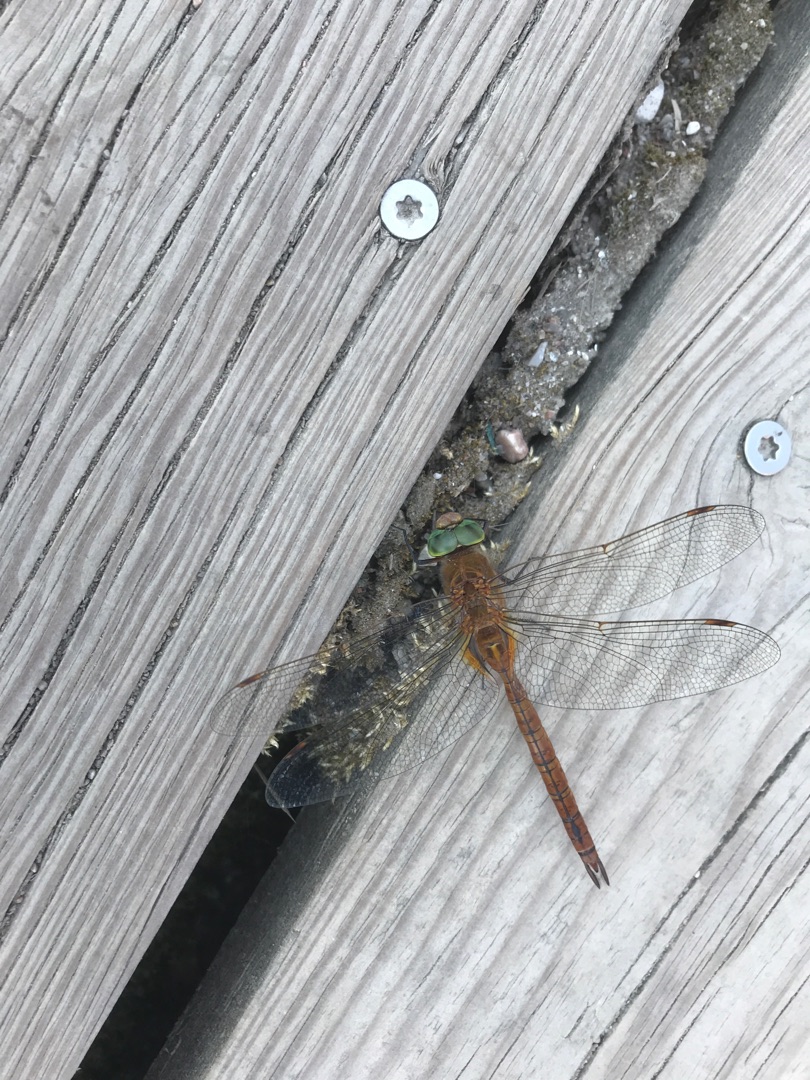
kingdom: Animalia
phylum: Arthropoda
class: Insecta
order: Odonata
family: Aeshnidae
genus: Aeshna
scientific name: Aeshna isoceles
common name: Kileplet-mosaikguldsmed
